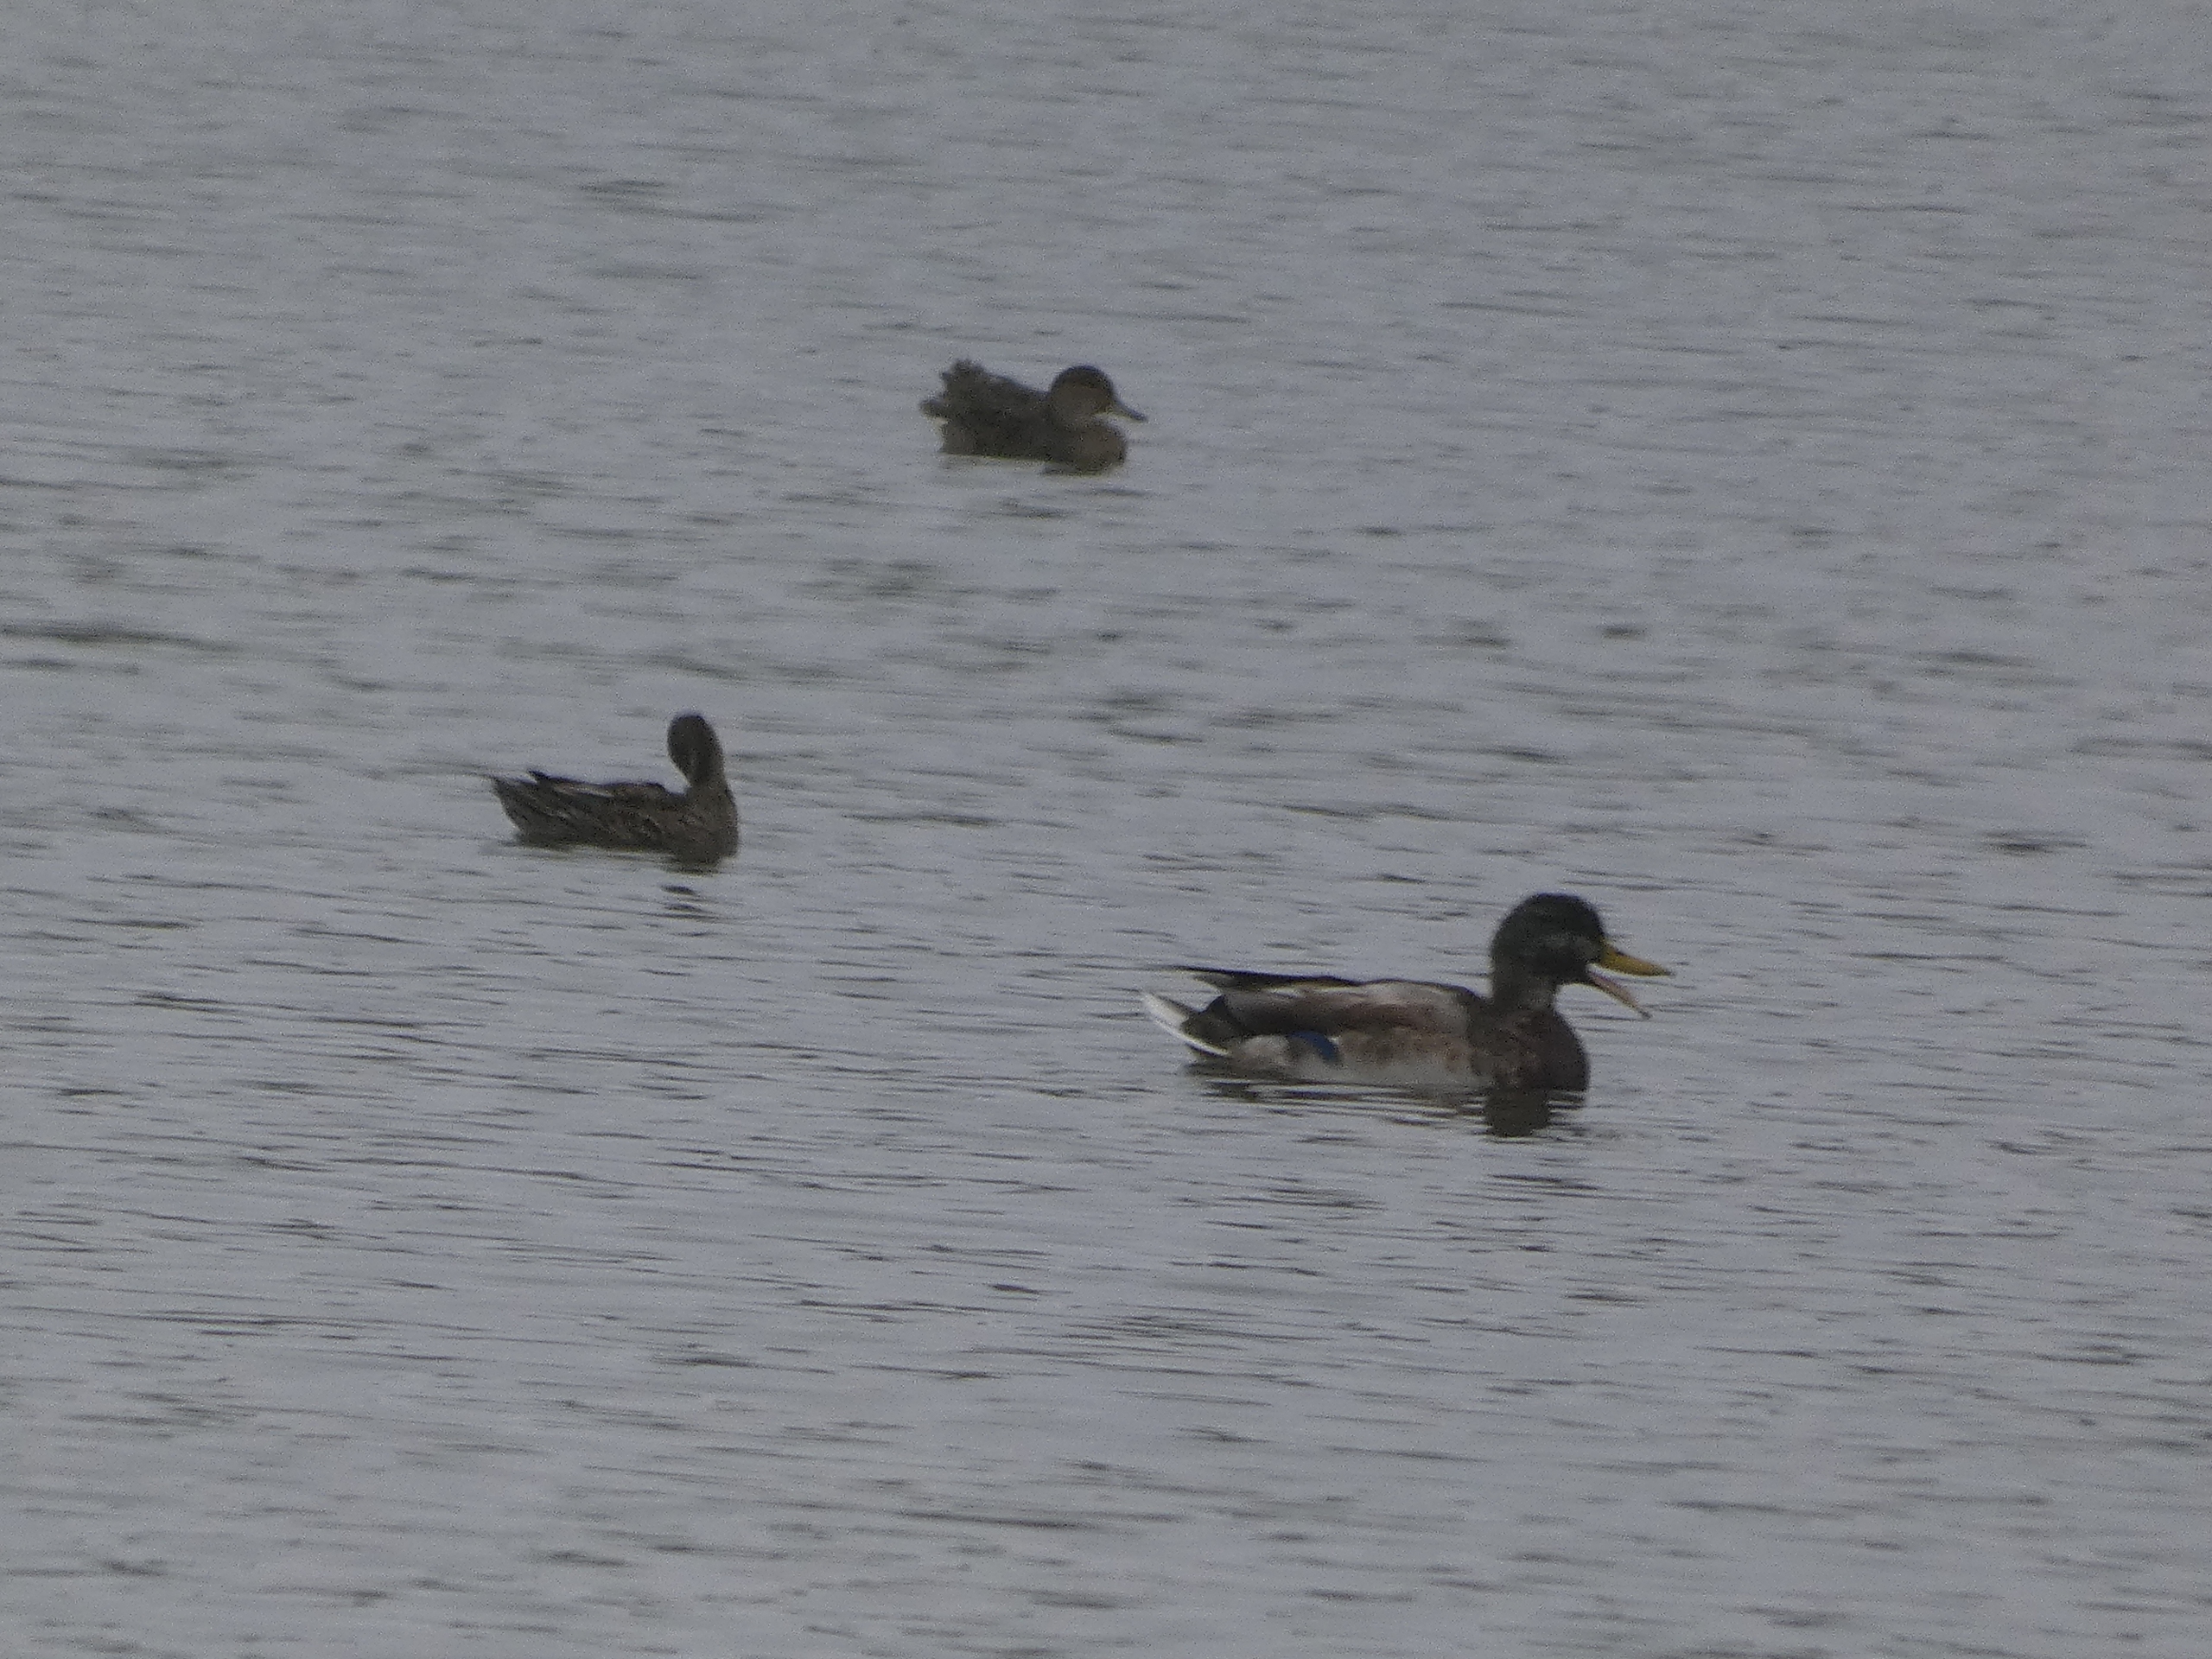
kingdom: Animalia
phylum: Chordata
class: Aves
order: Anseriformes
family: Anatidae
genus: Anas
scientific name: Anas platyrhynchos
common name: Gråand
